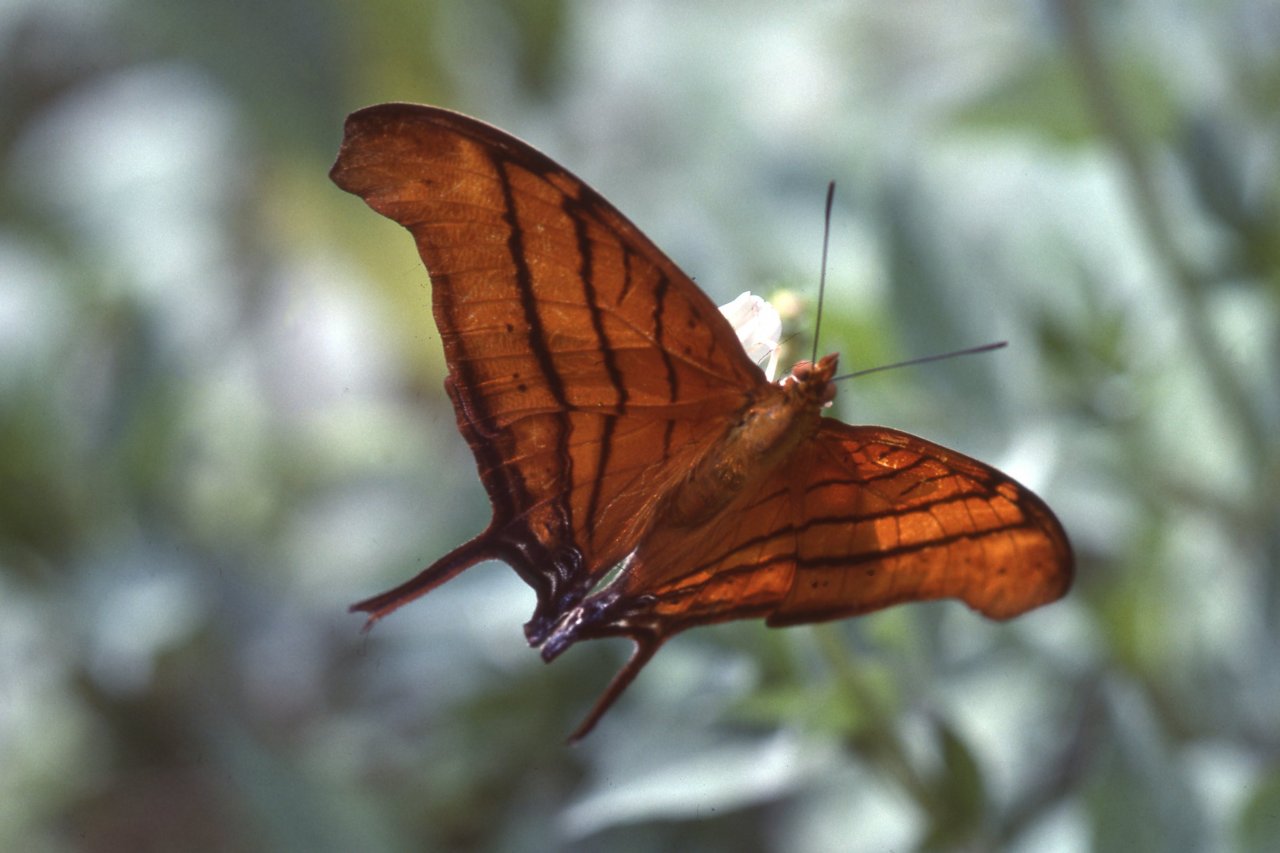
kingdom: Animalia
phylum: Arthropoda
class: Insecta
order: Lepidoptera
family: Nymphalidae
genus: Marpesia
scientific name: Marpesia petreus
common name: Ruddy Daggerwing
